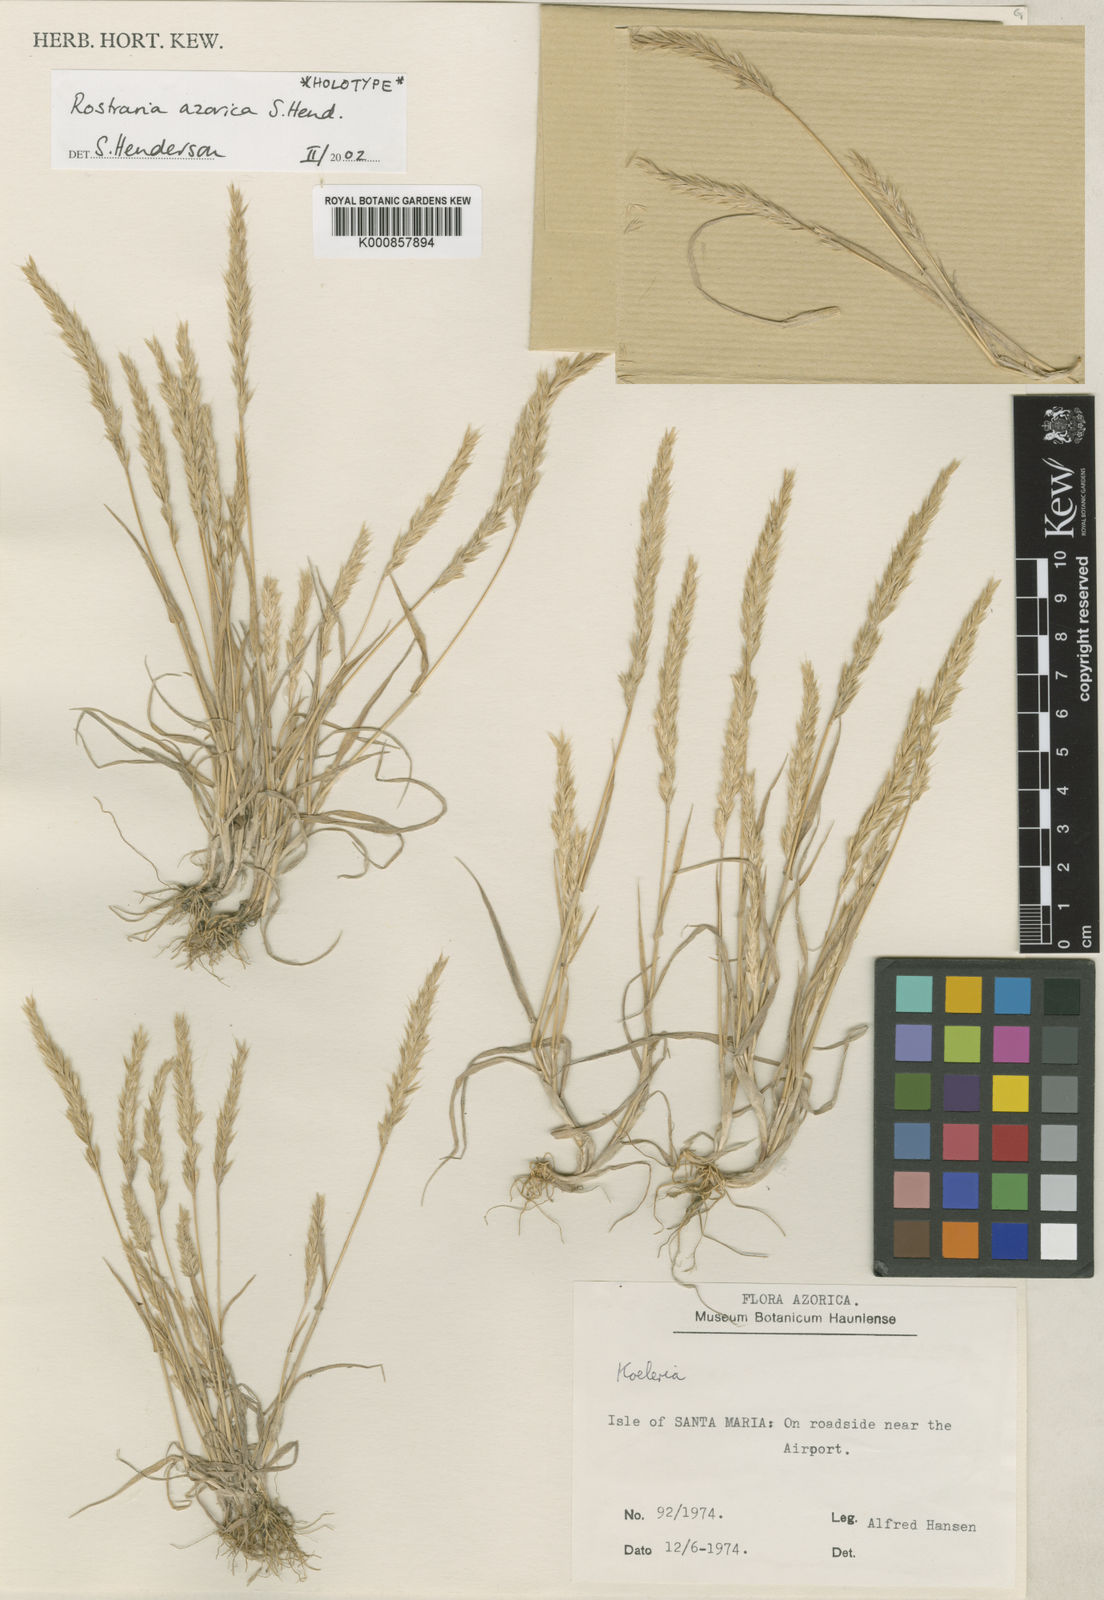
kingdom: Plantae
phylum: Tracheophyta
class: Liliopsida
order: Poales
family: Poaceae
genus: Rostraria
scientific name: Rostraria azorica
